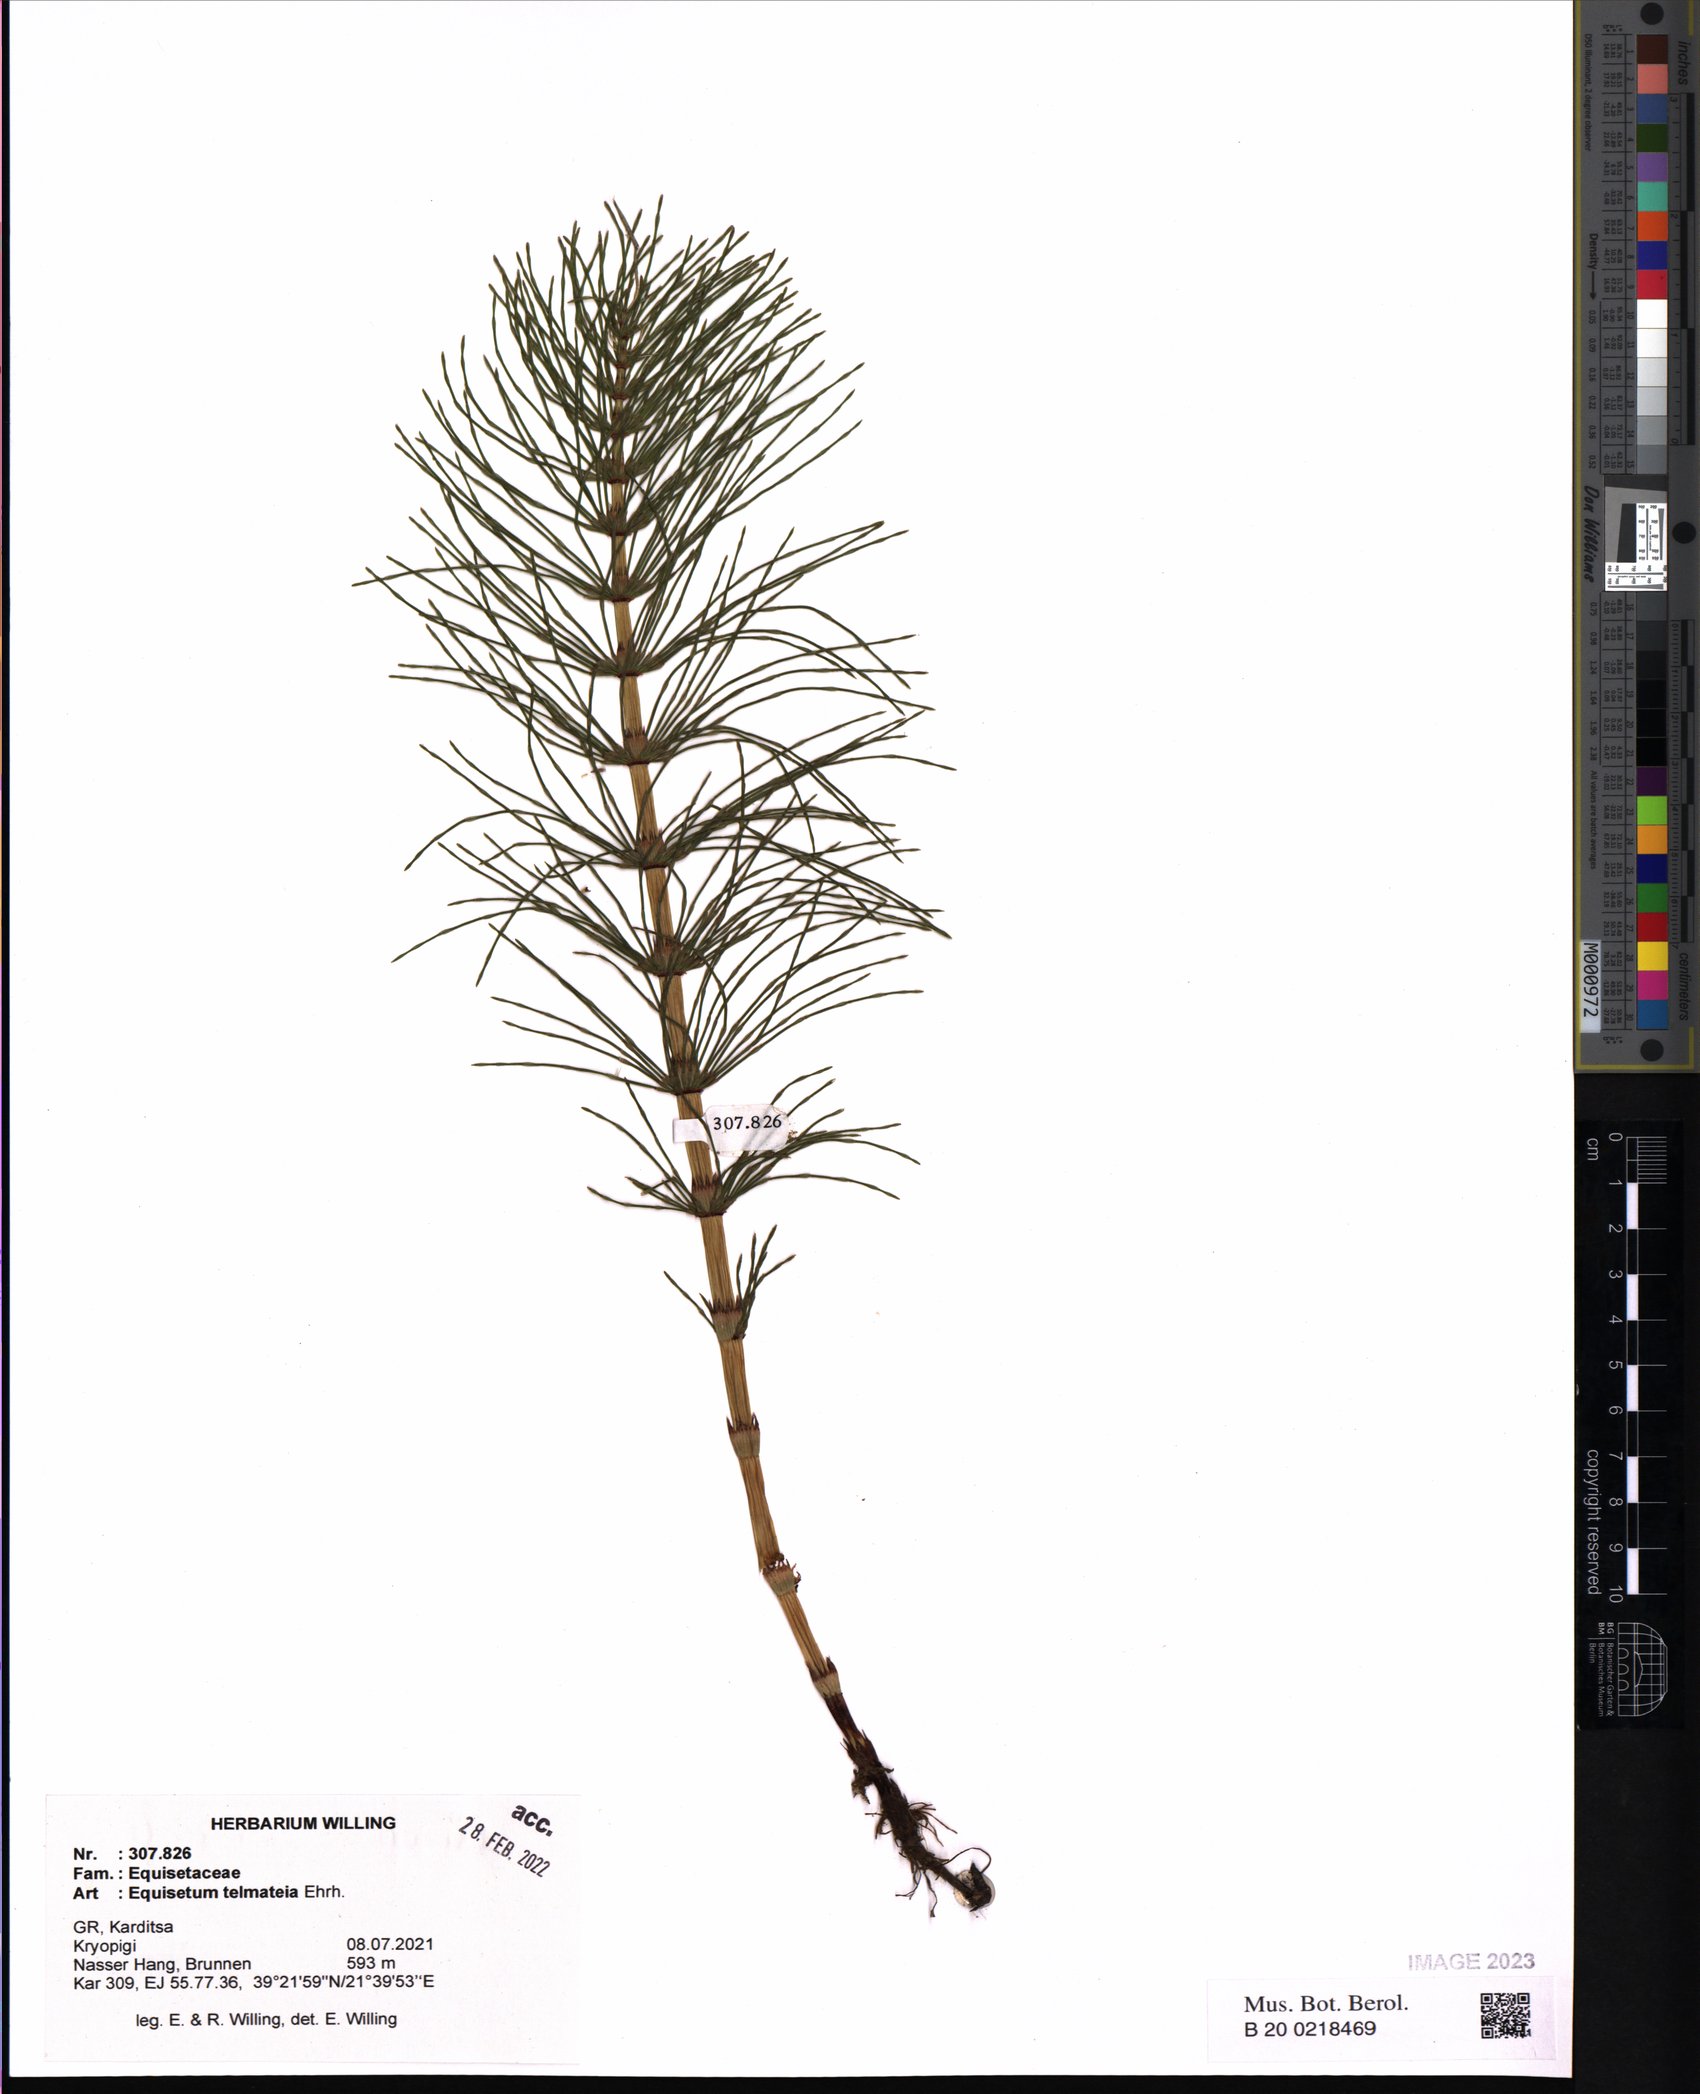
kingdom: Plantae
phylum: Tracheophyta
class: Polypodiopsida
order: Equisetales
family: Equisetaceae
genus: Equisetum
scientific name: Equisetum telmateia
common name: Great horsetail
